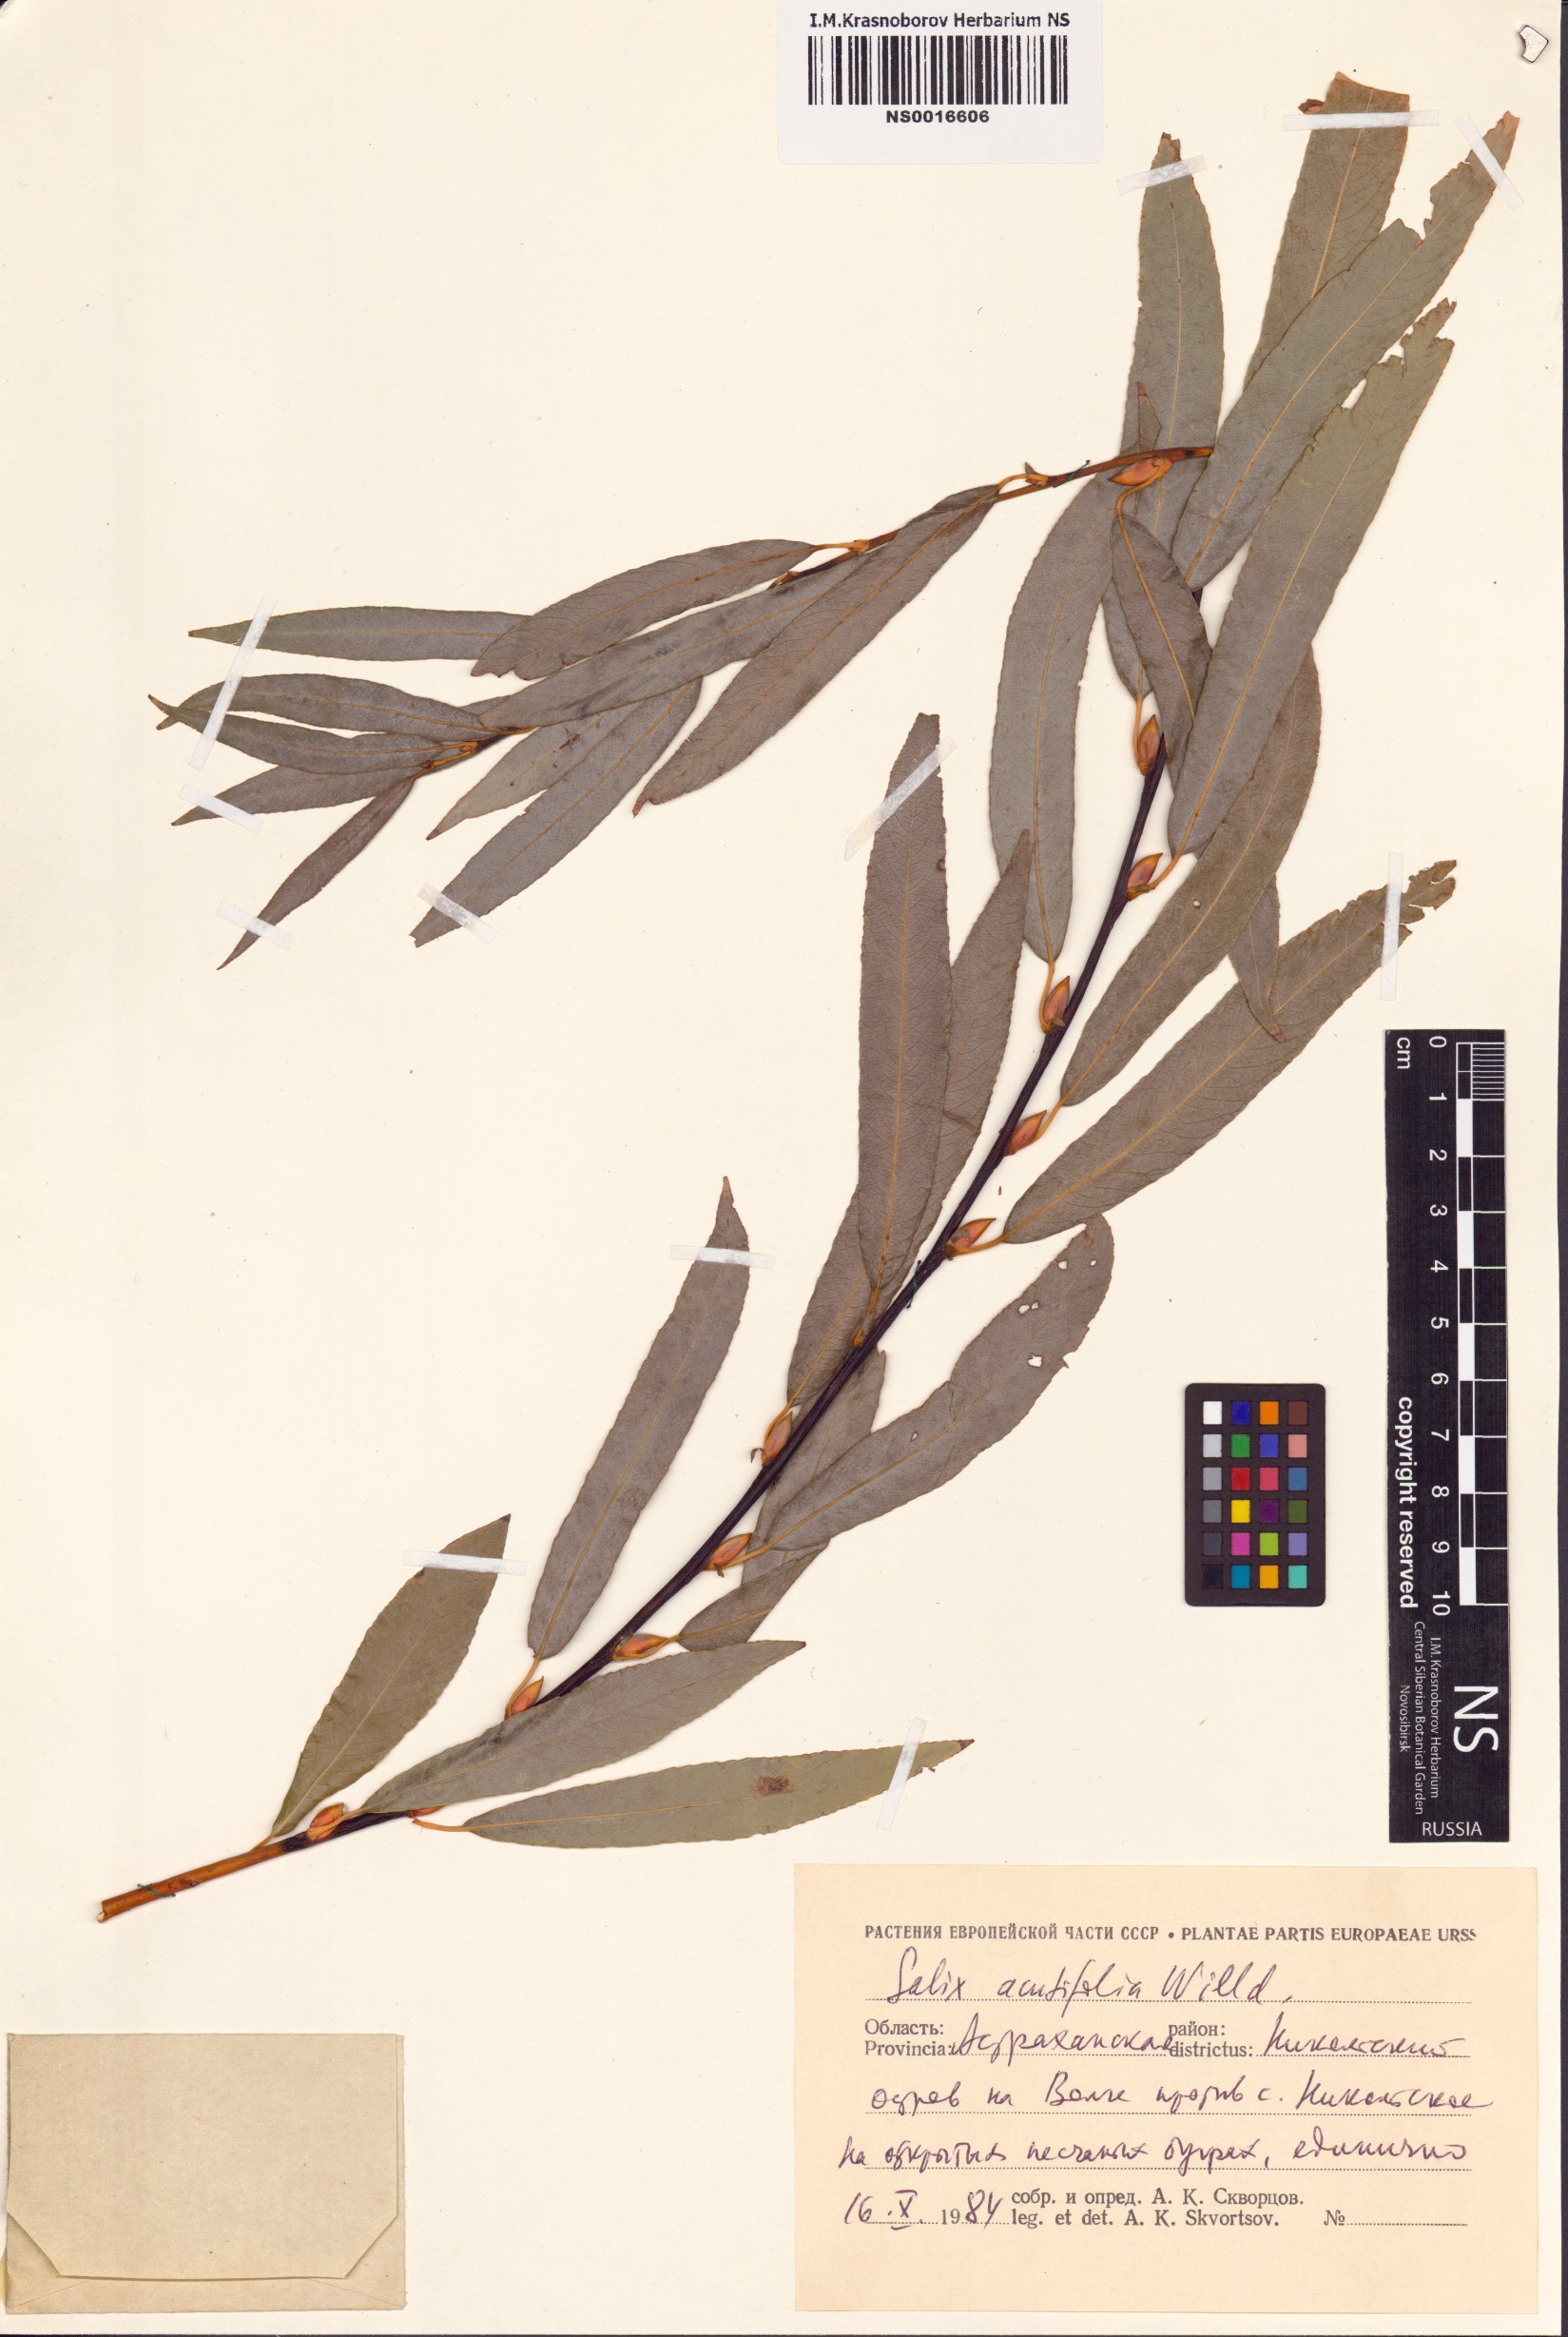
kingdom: Plantae
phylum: Tracheophyta
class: Magnoliopsida
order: Malpighiales
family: Salicaceae
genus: Salix
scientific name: Salix acutifolia
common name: Siberian violet-willow
